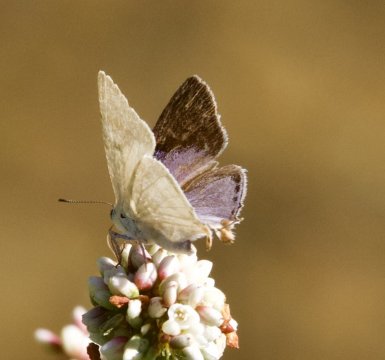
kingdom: Animalia
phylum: Arthropoda
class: Insecta
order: Lepidoptera
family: Lycaenidae
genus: Dolymorpha
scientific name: Dolymorpha jada
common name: Creamy Stripe-Streak
